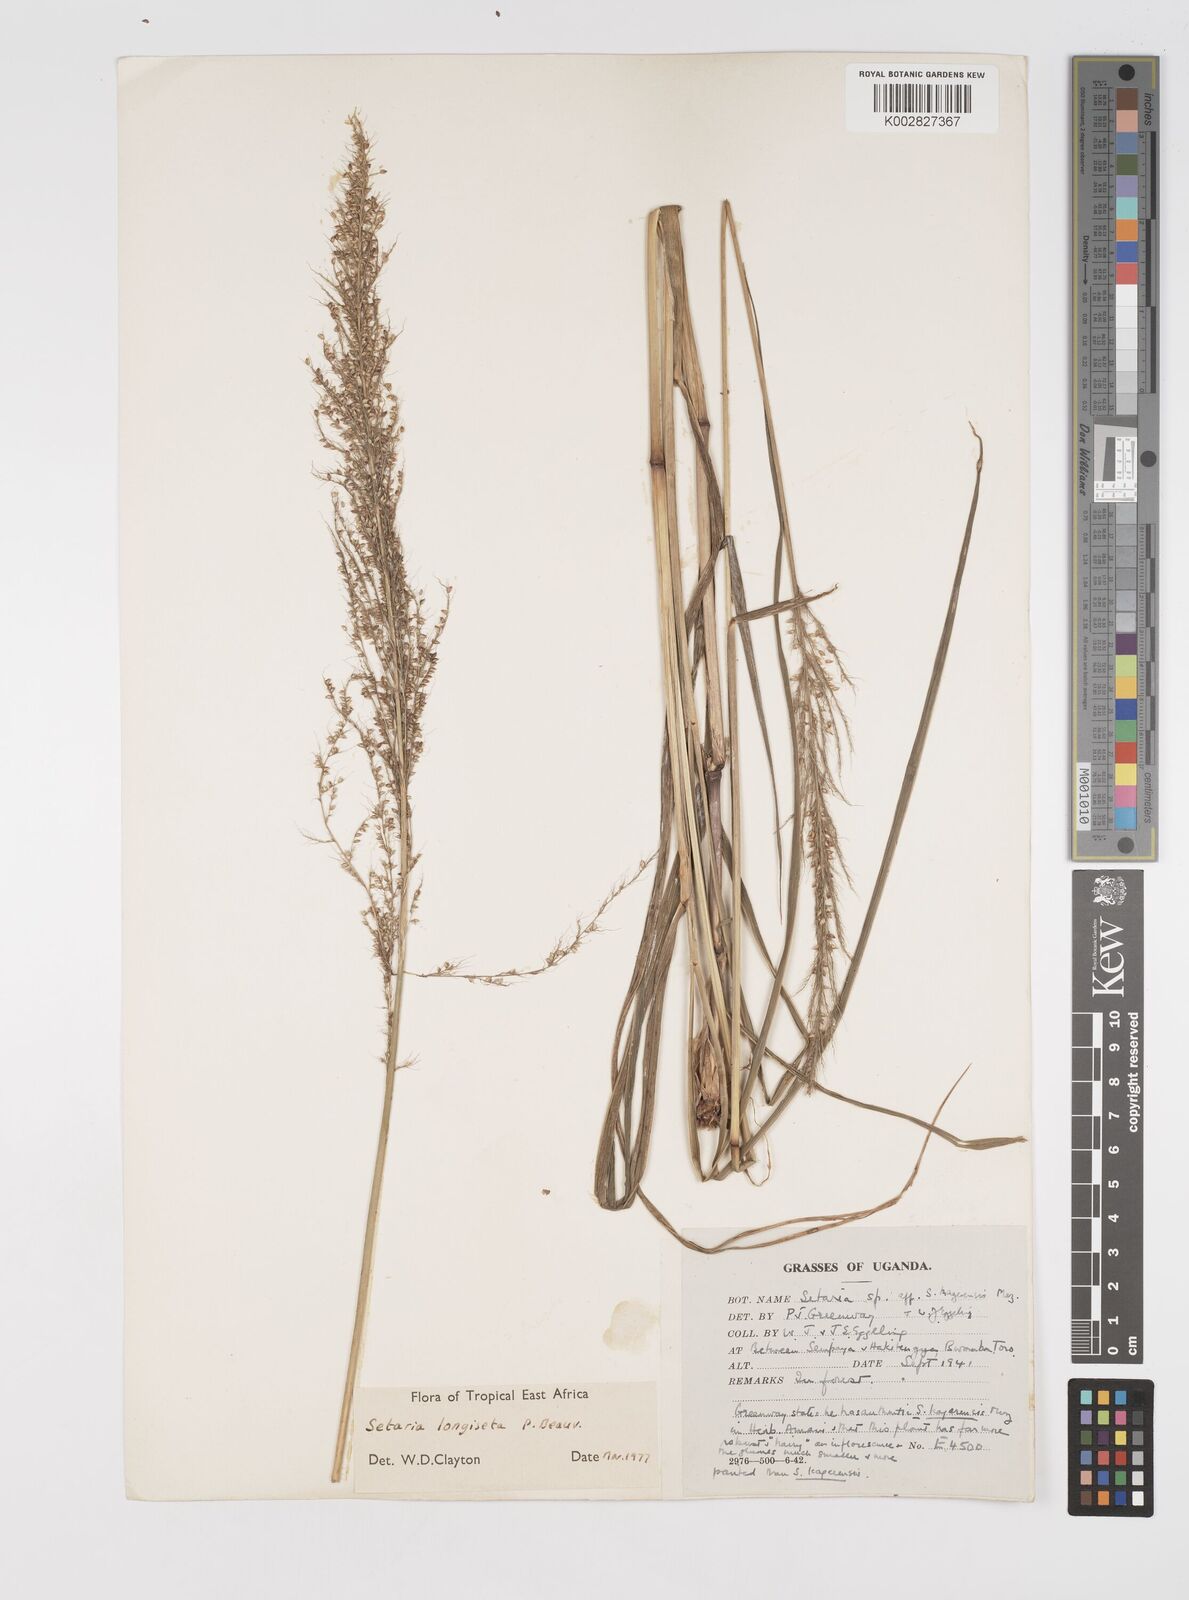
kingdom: Plantae
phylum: Tracheophyta
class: Liliopsida
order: Poales
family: Poaceae
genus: Setaria
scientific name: Setaria longiseta
